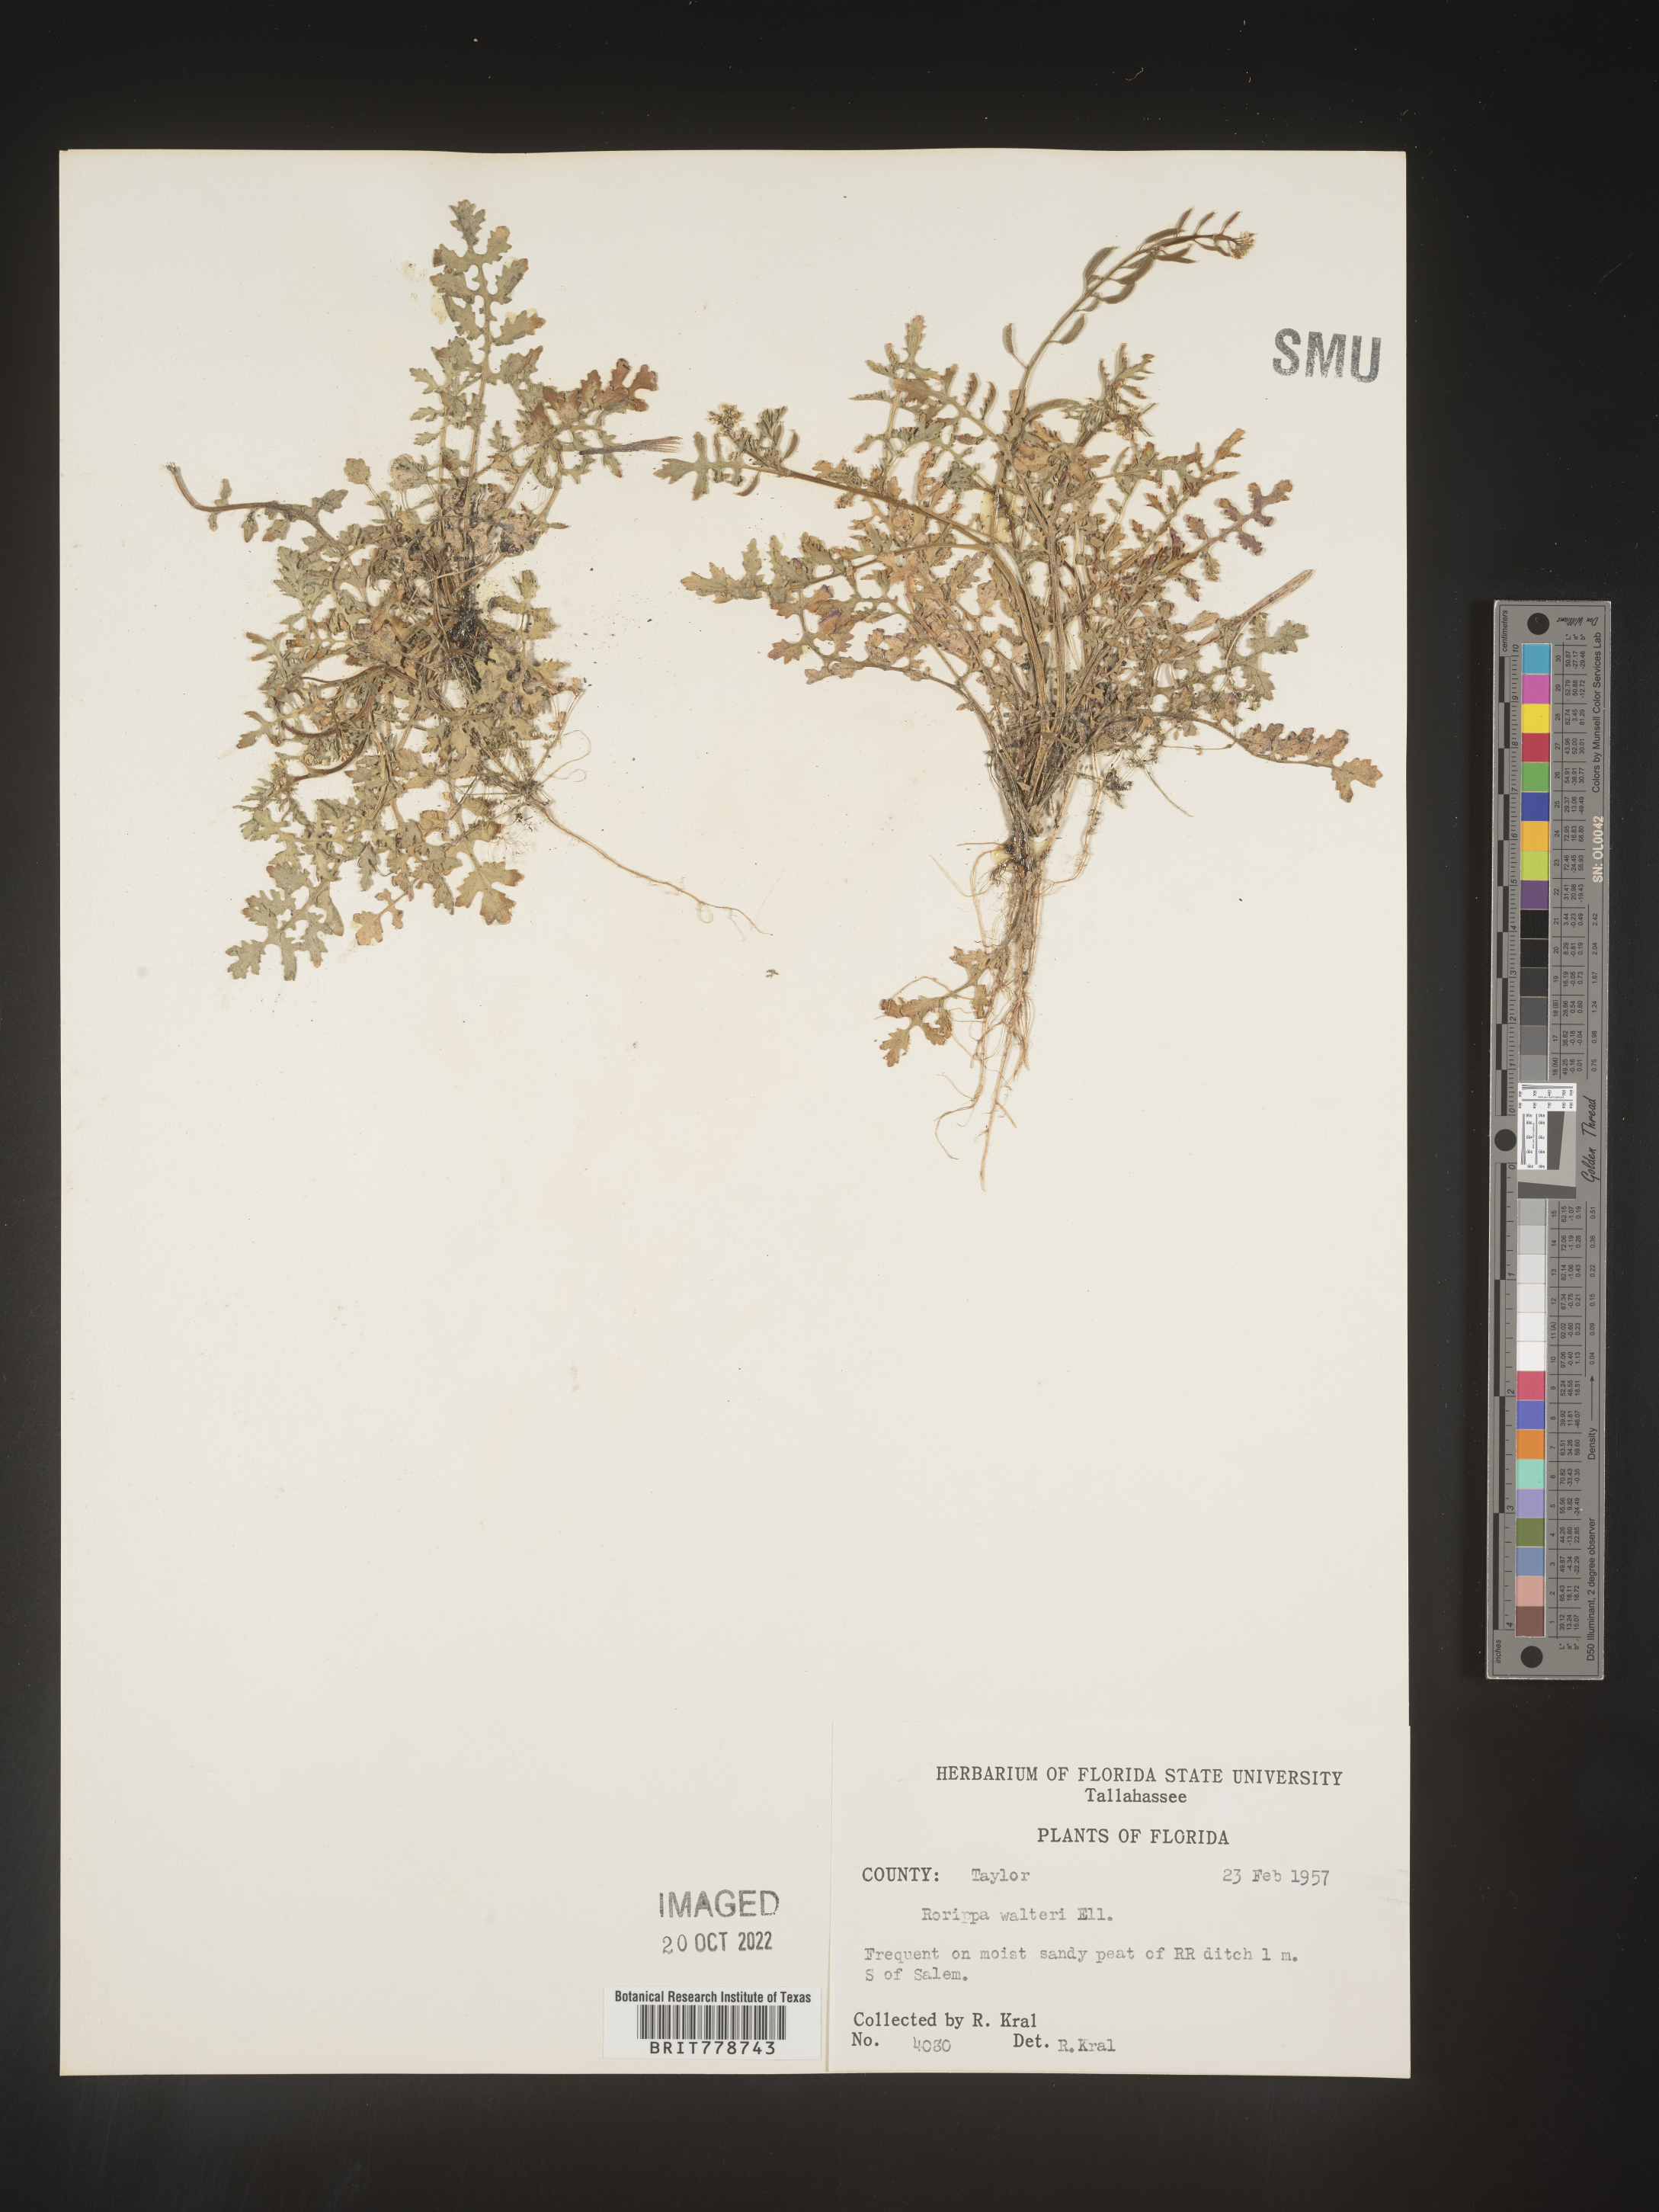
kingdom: Plantae
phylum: Tracheophyta
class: Magnoliopsida
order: Brassicales
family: Brassicaceae
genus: Rorippa
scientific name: Rorippa teres
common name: Southern marsh yellowcress
